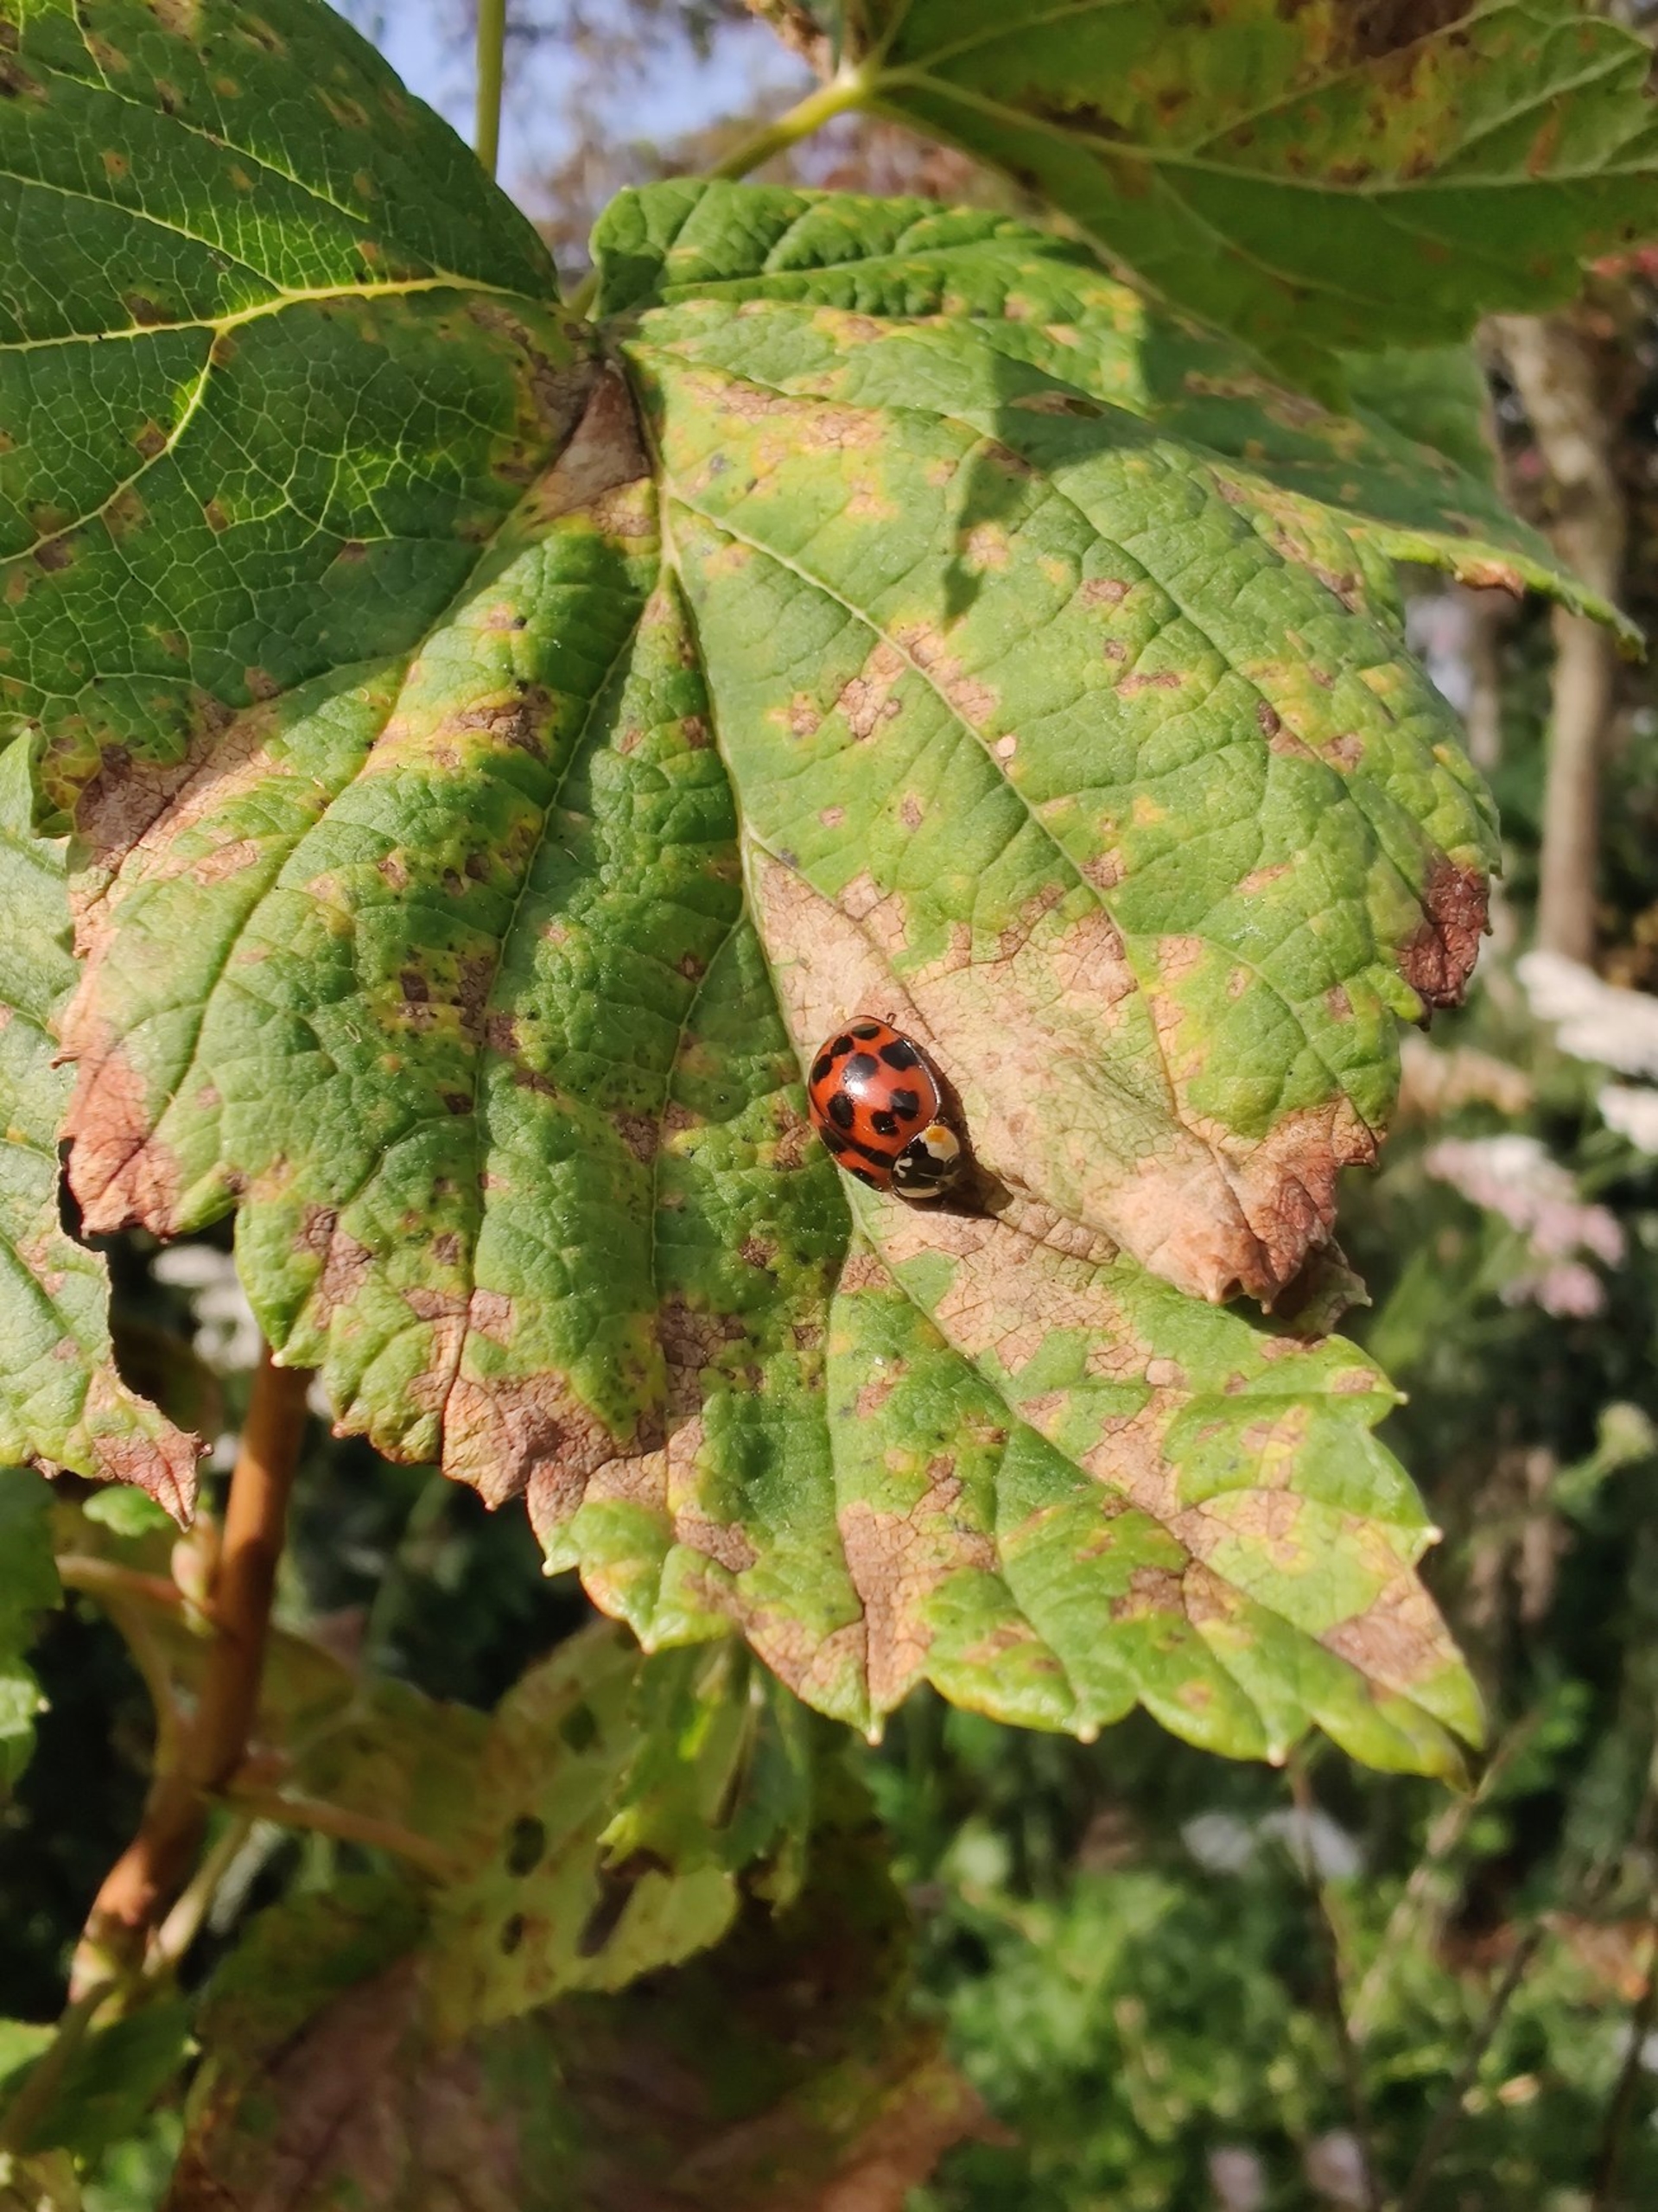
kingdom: Animalia
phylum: Arthropoda
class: Insecta
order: Coleoptera
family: Coccinellidae
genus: Harmonia
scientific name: Harmonia axyridis
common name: Harlekinmariehøne
